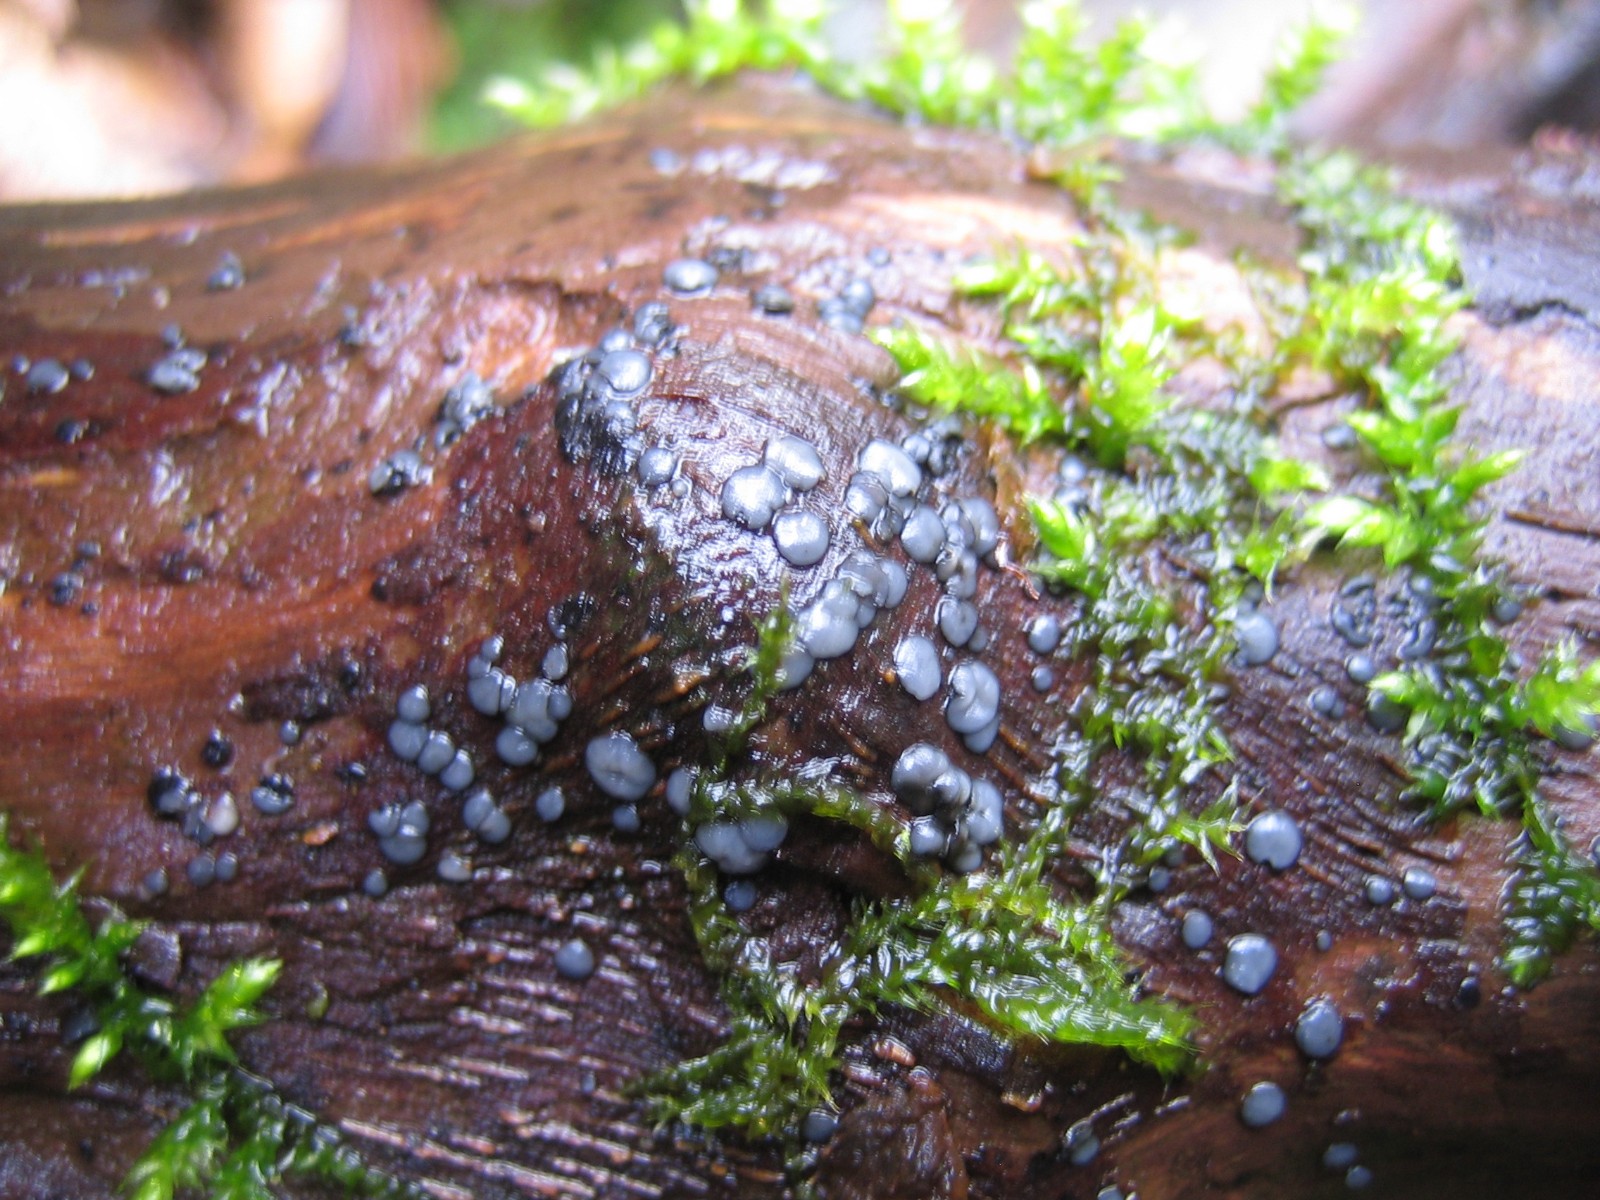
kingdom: Fungi
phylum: Ascomycota
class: Leotiomycetes
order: Helotiales
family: Mollisiaceae
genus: Mollisia
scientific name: Mollisia
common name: gråskive
